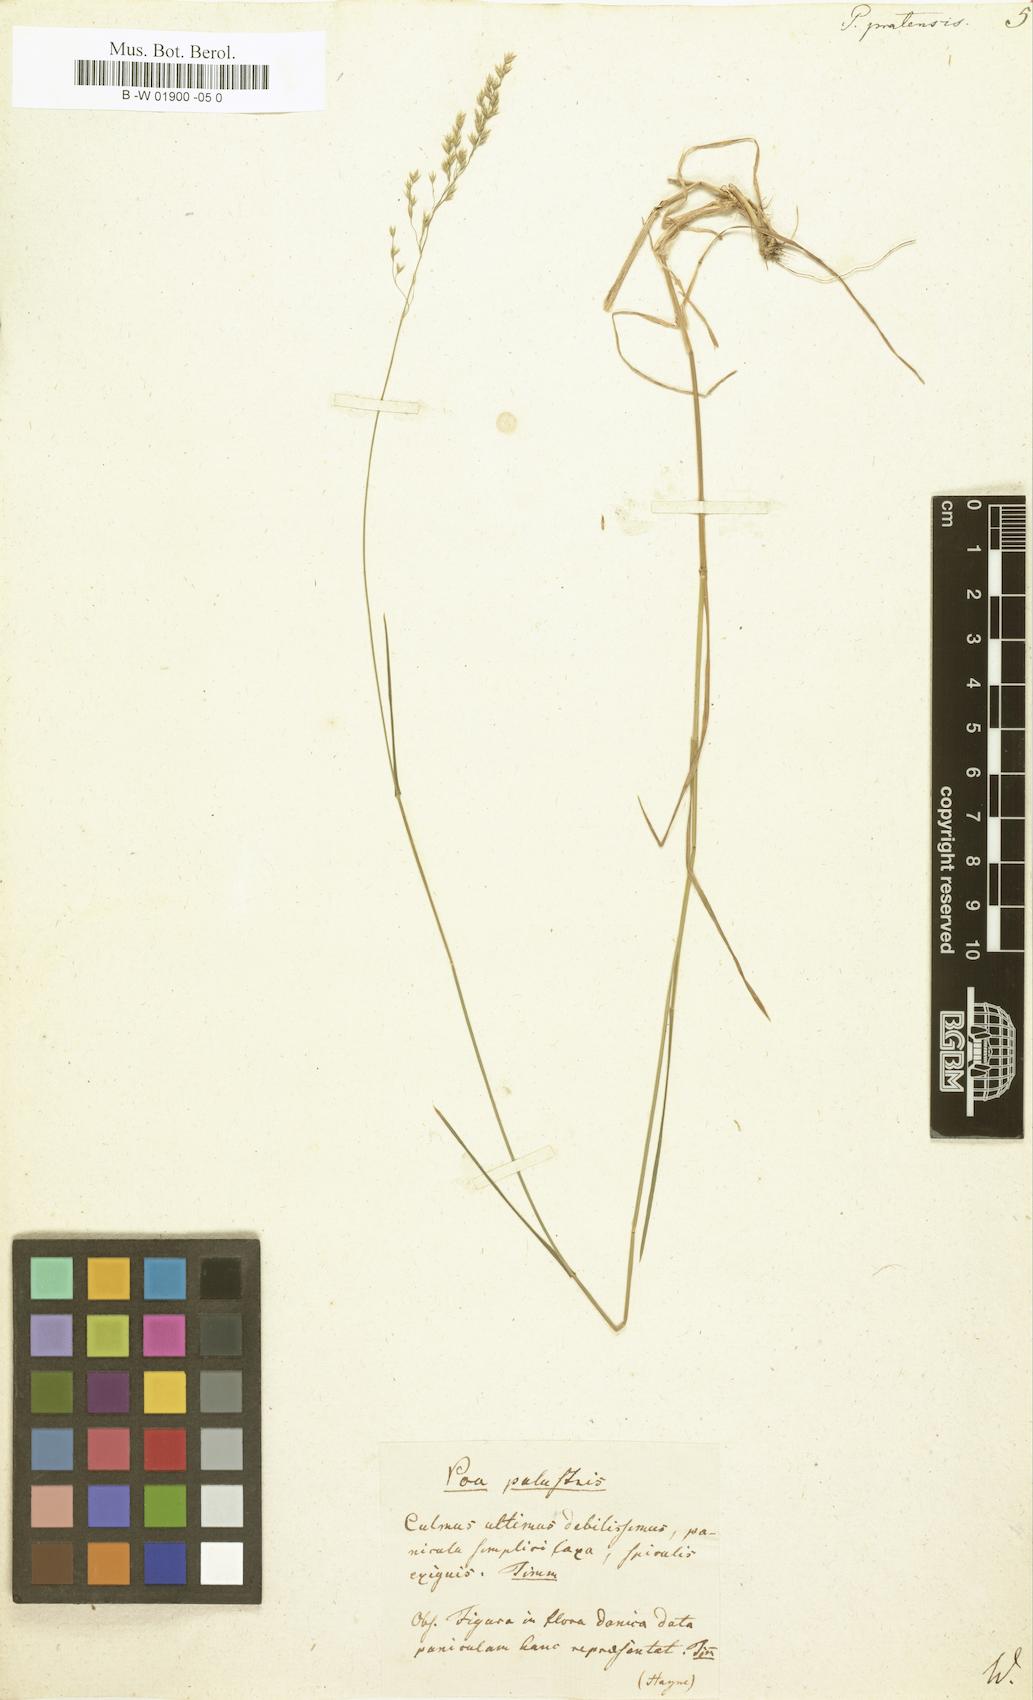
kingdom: Plantae
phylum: Tracheophyta
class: Liliopsida
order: Poales
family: Poaceae
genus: Poa
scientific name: Poa pratensis
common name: Kentucky bluegrass
